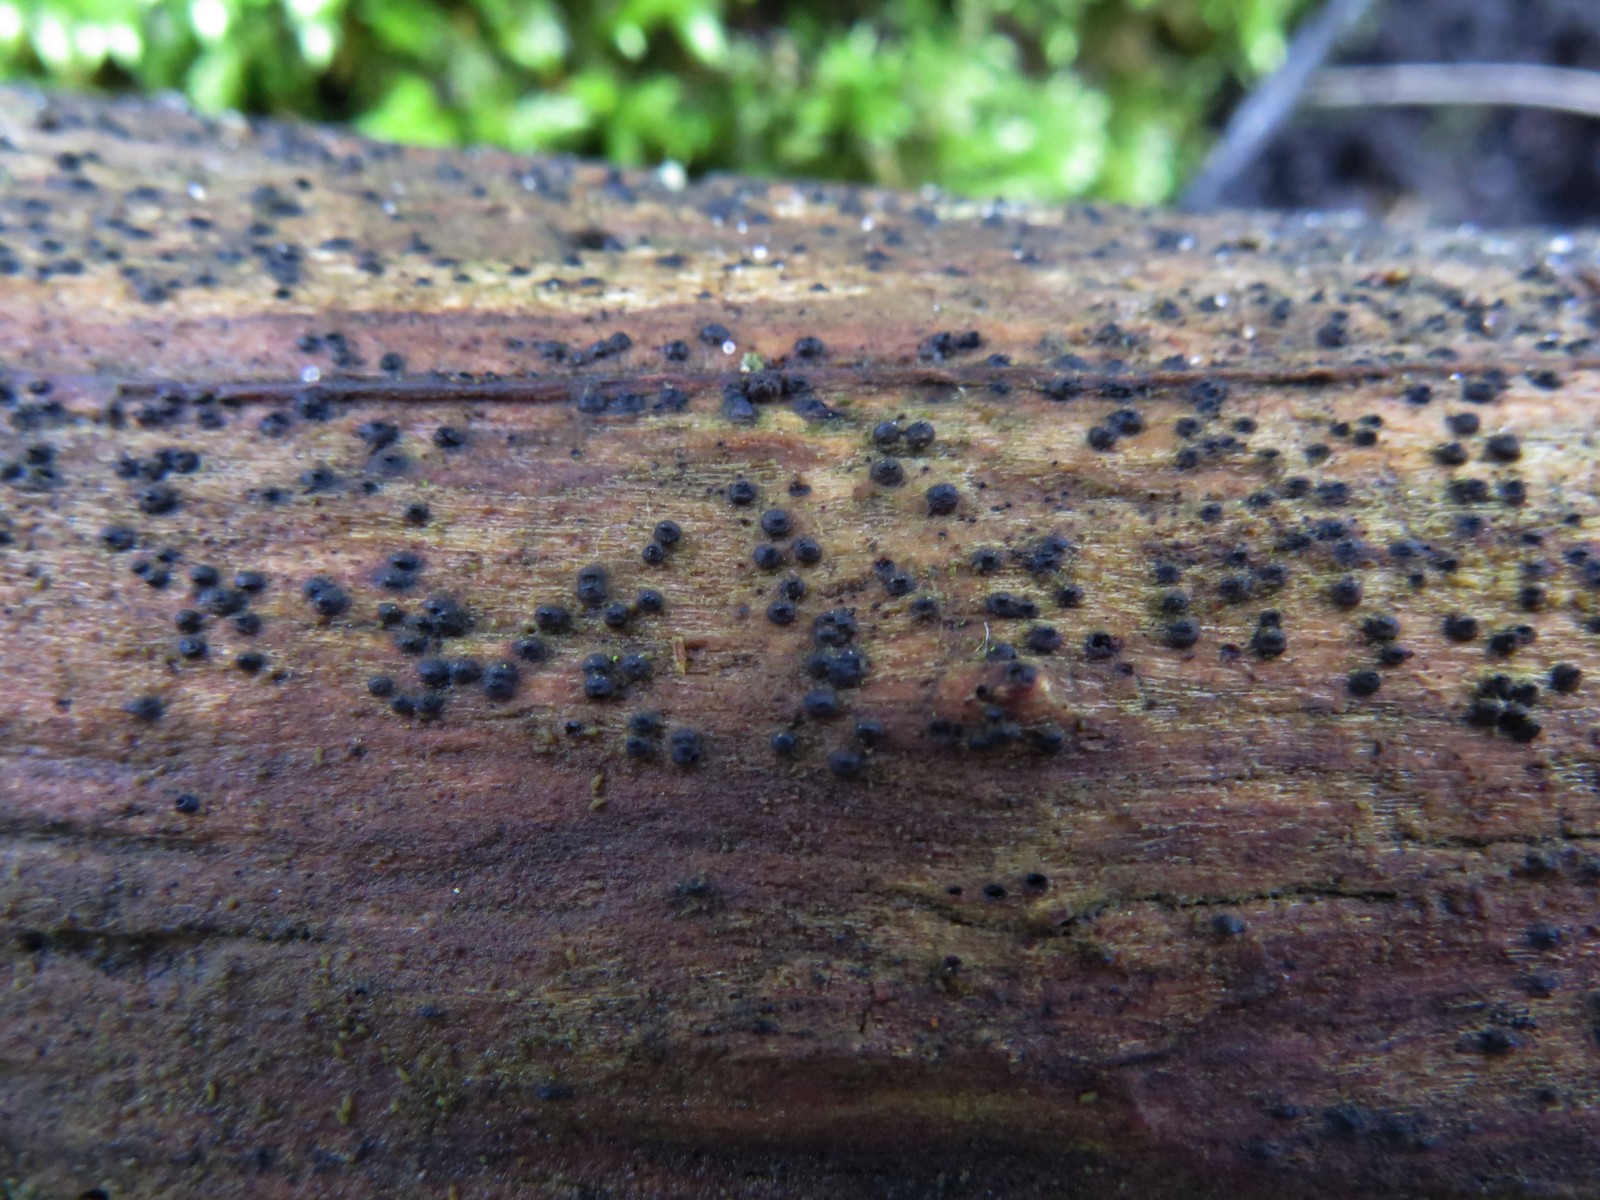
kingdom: Fungi
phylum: Ascomycota
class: Dothideomycetes
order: Pleosporales
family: Thyridariaceae
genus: Thyridaria
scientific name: Thyridaria macrostomoides
